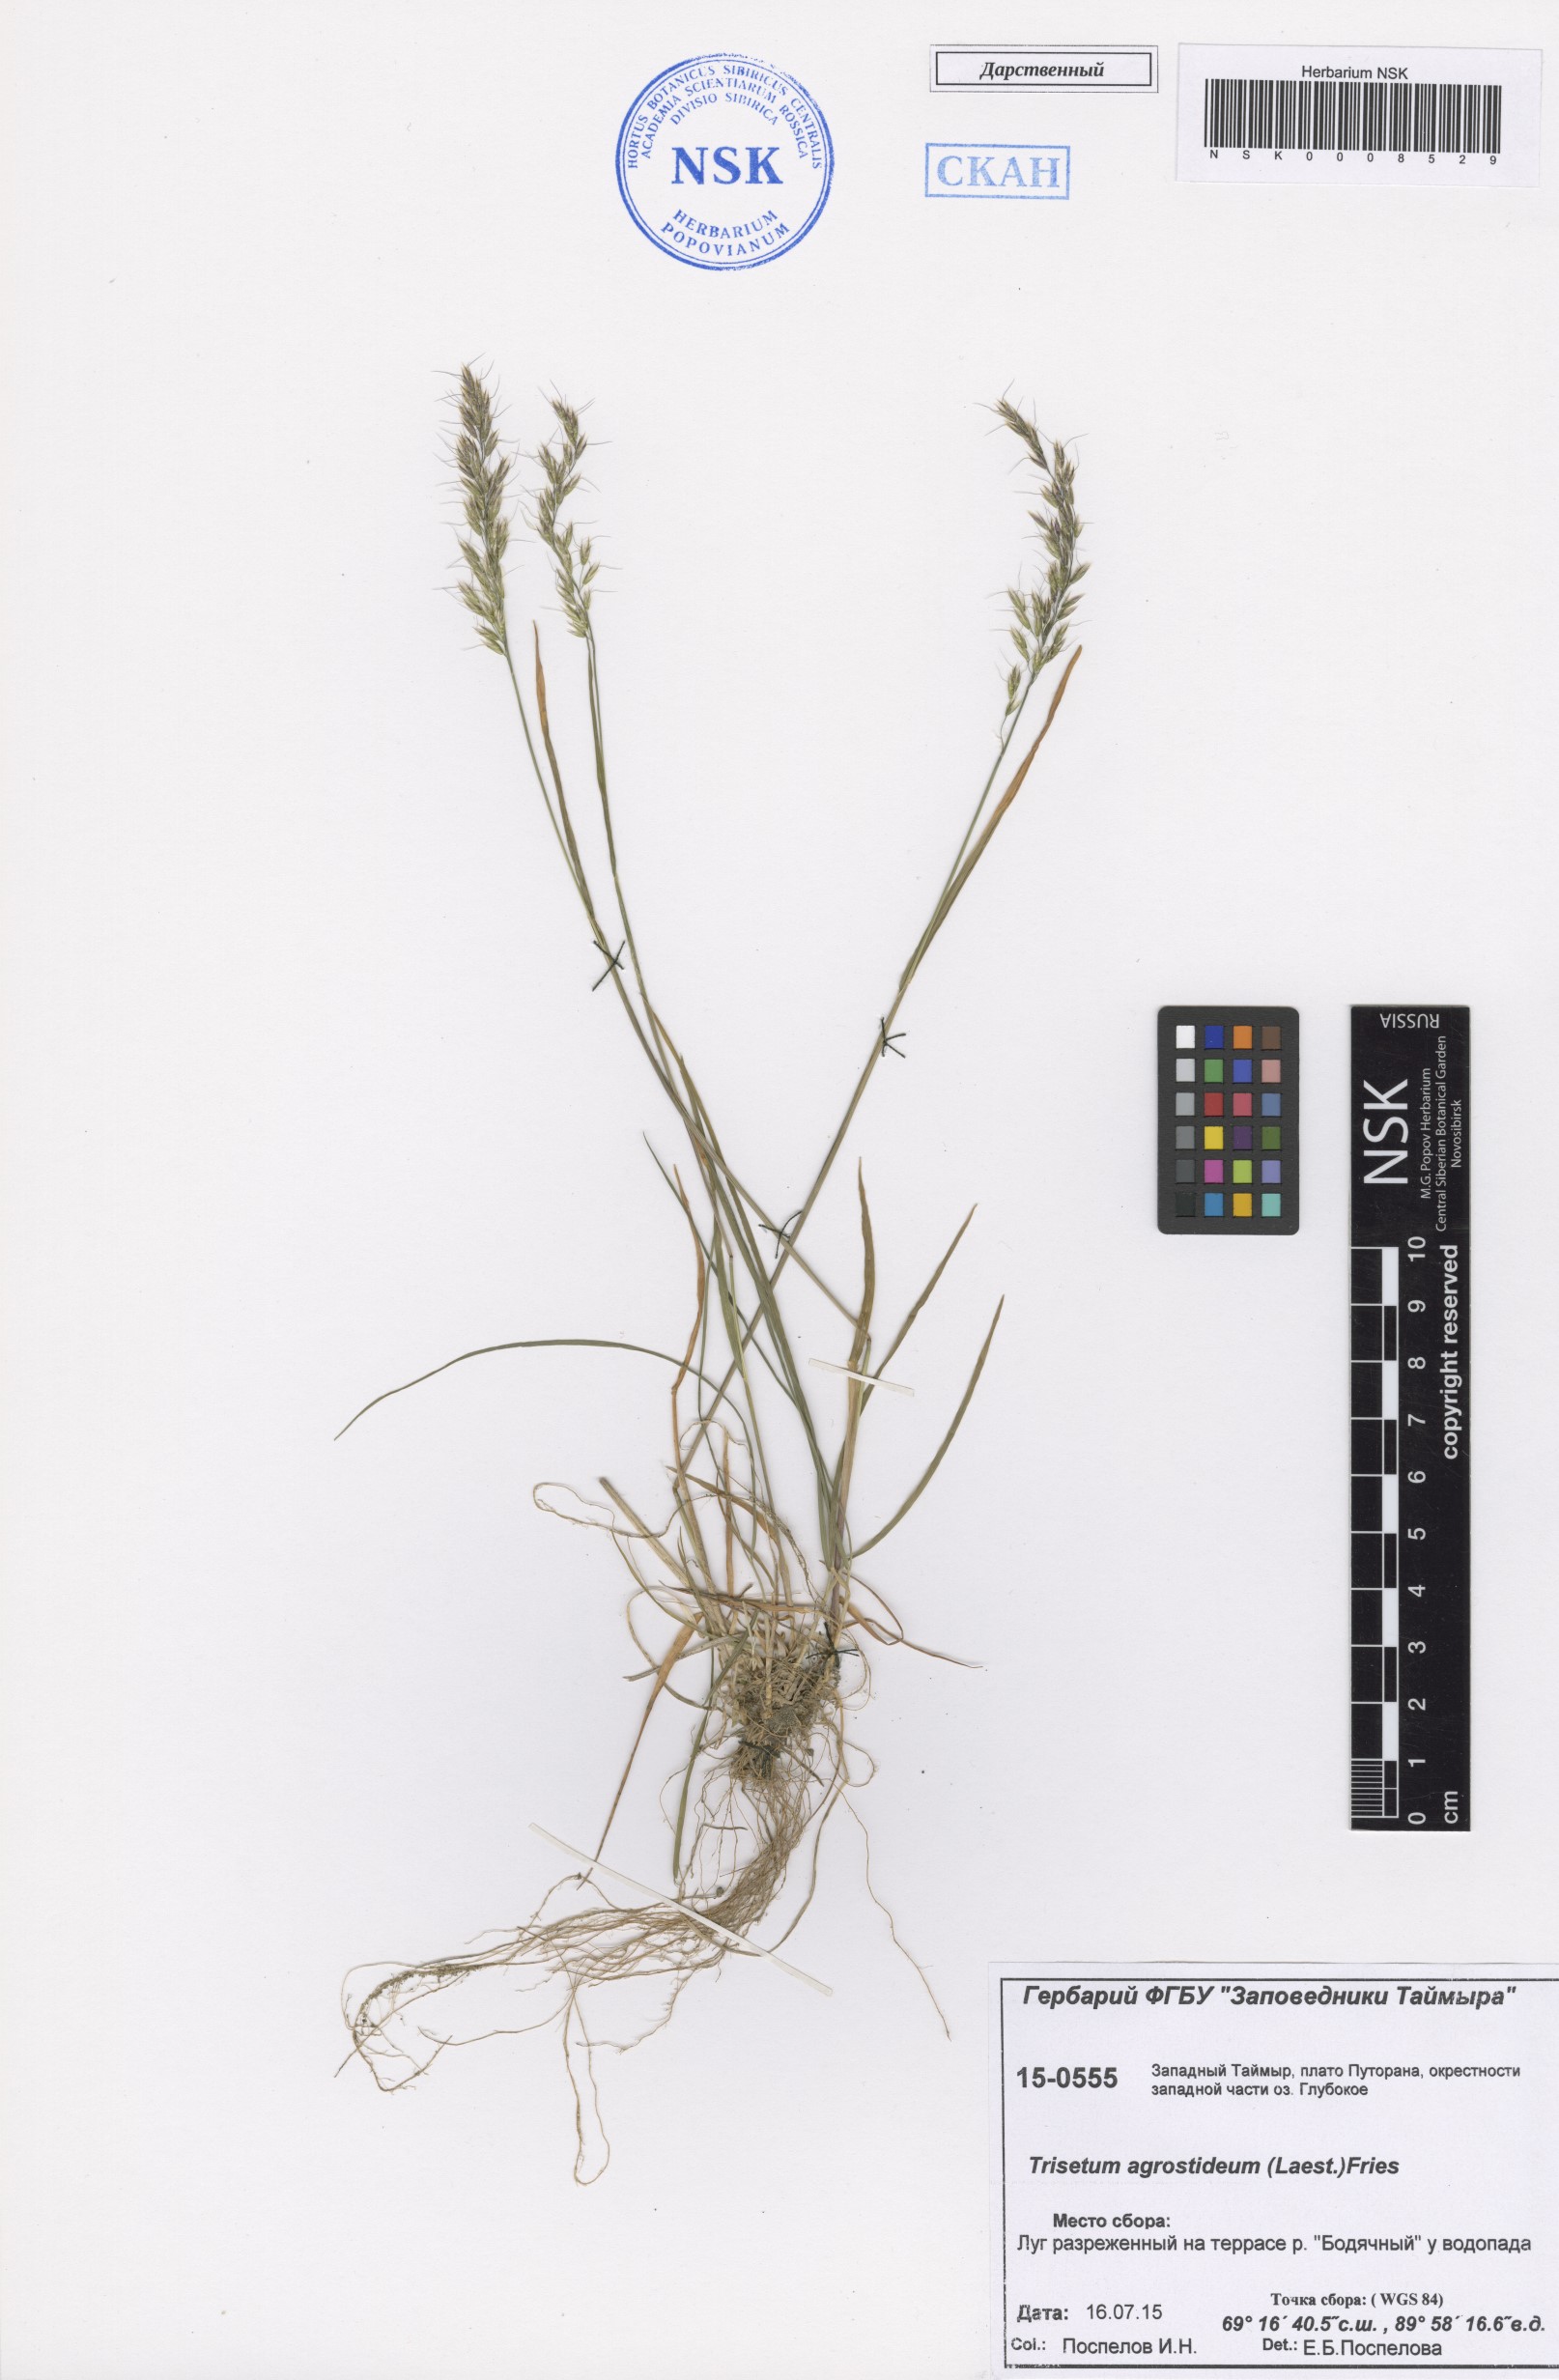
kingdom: Plantae
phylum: Tracheophyta
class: Liliopsida
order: Poales
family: Poaceae
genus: Koeleria
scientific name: Koeleria subalpestris
